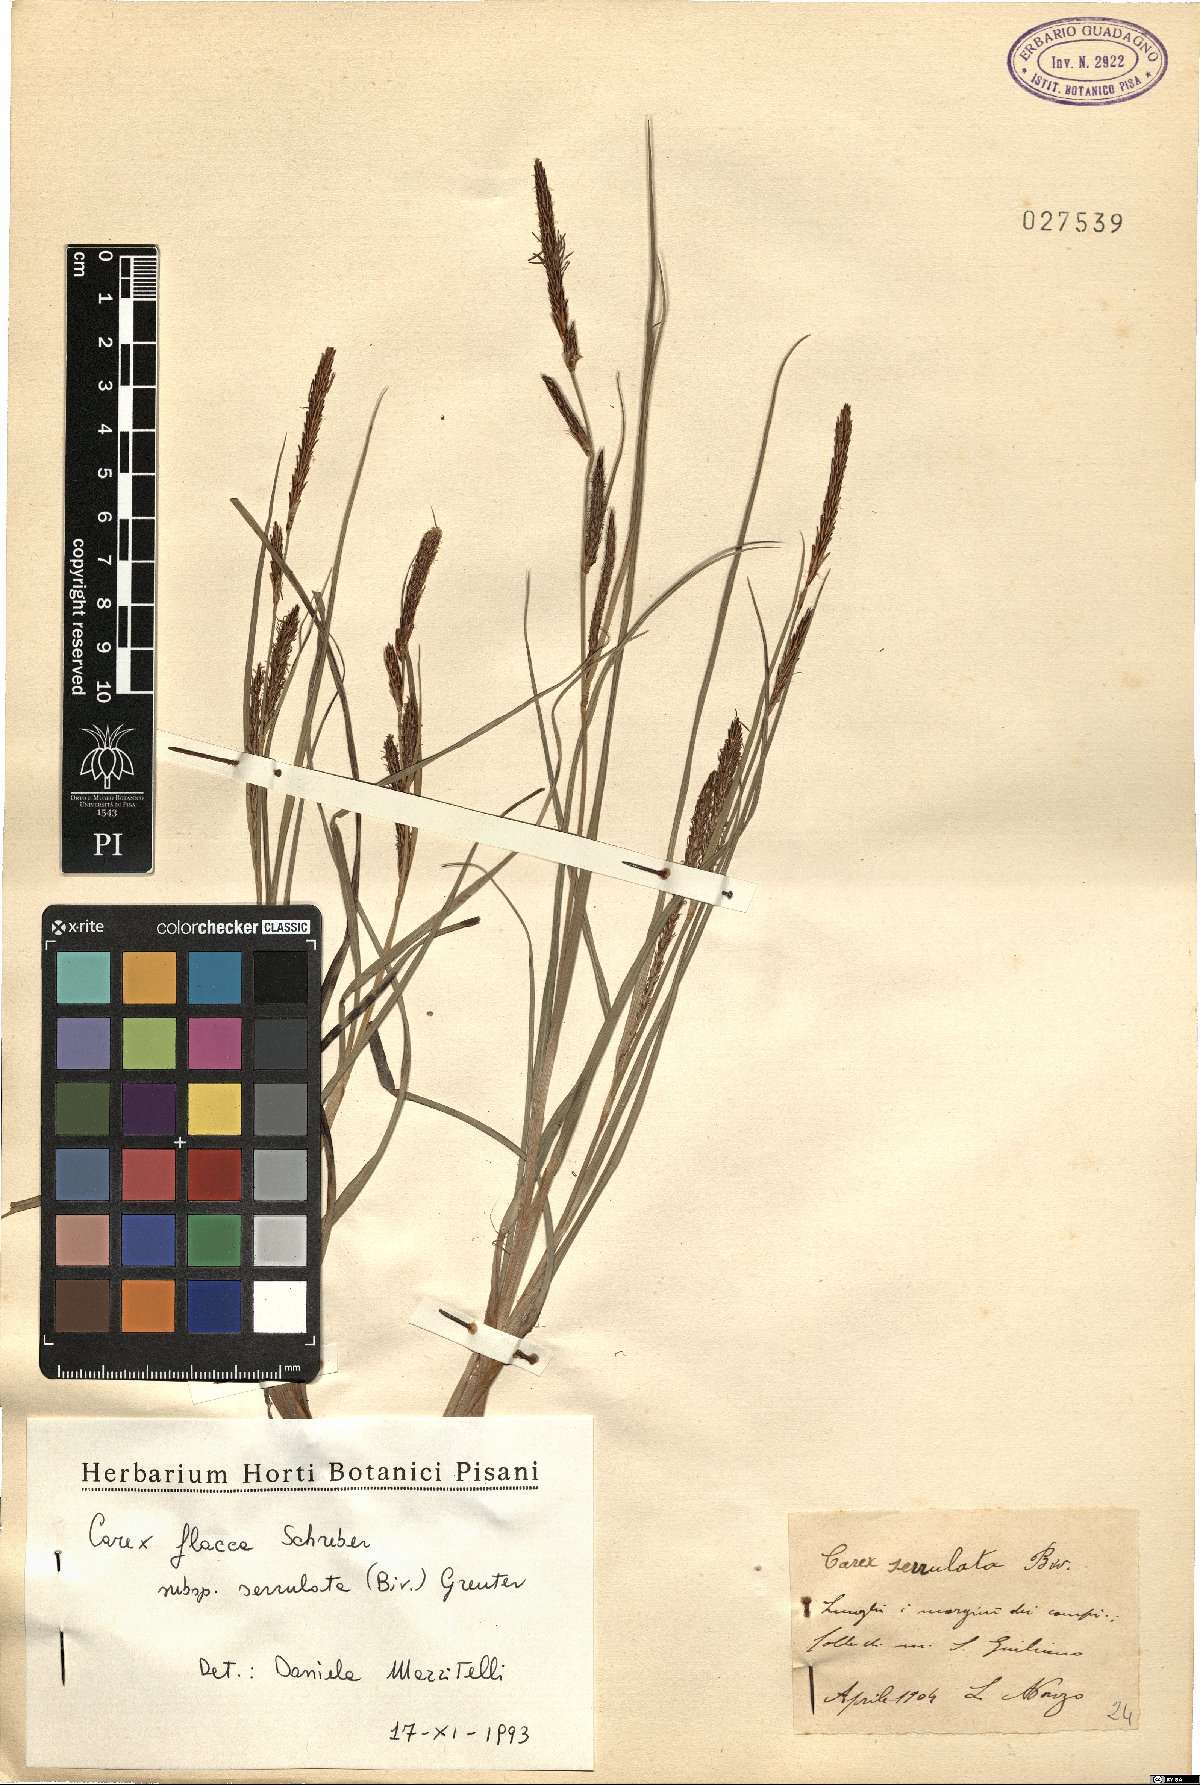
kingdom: Plantae
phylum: Tracheophyta
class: Liliopsida
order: Poales
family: Cyperaceae
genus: Carex
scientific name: Carex flacca
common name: Glaucous sedge
